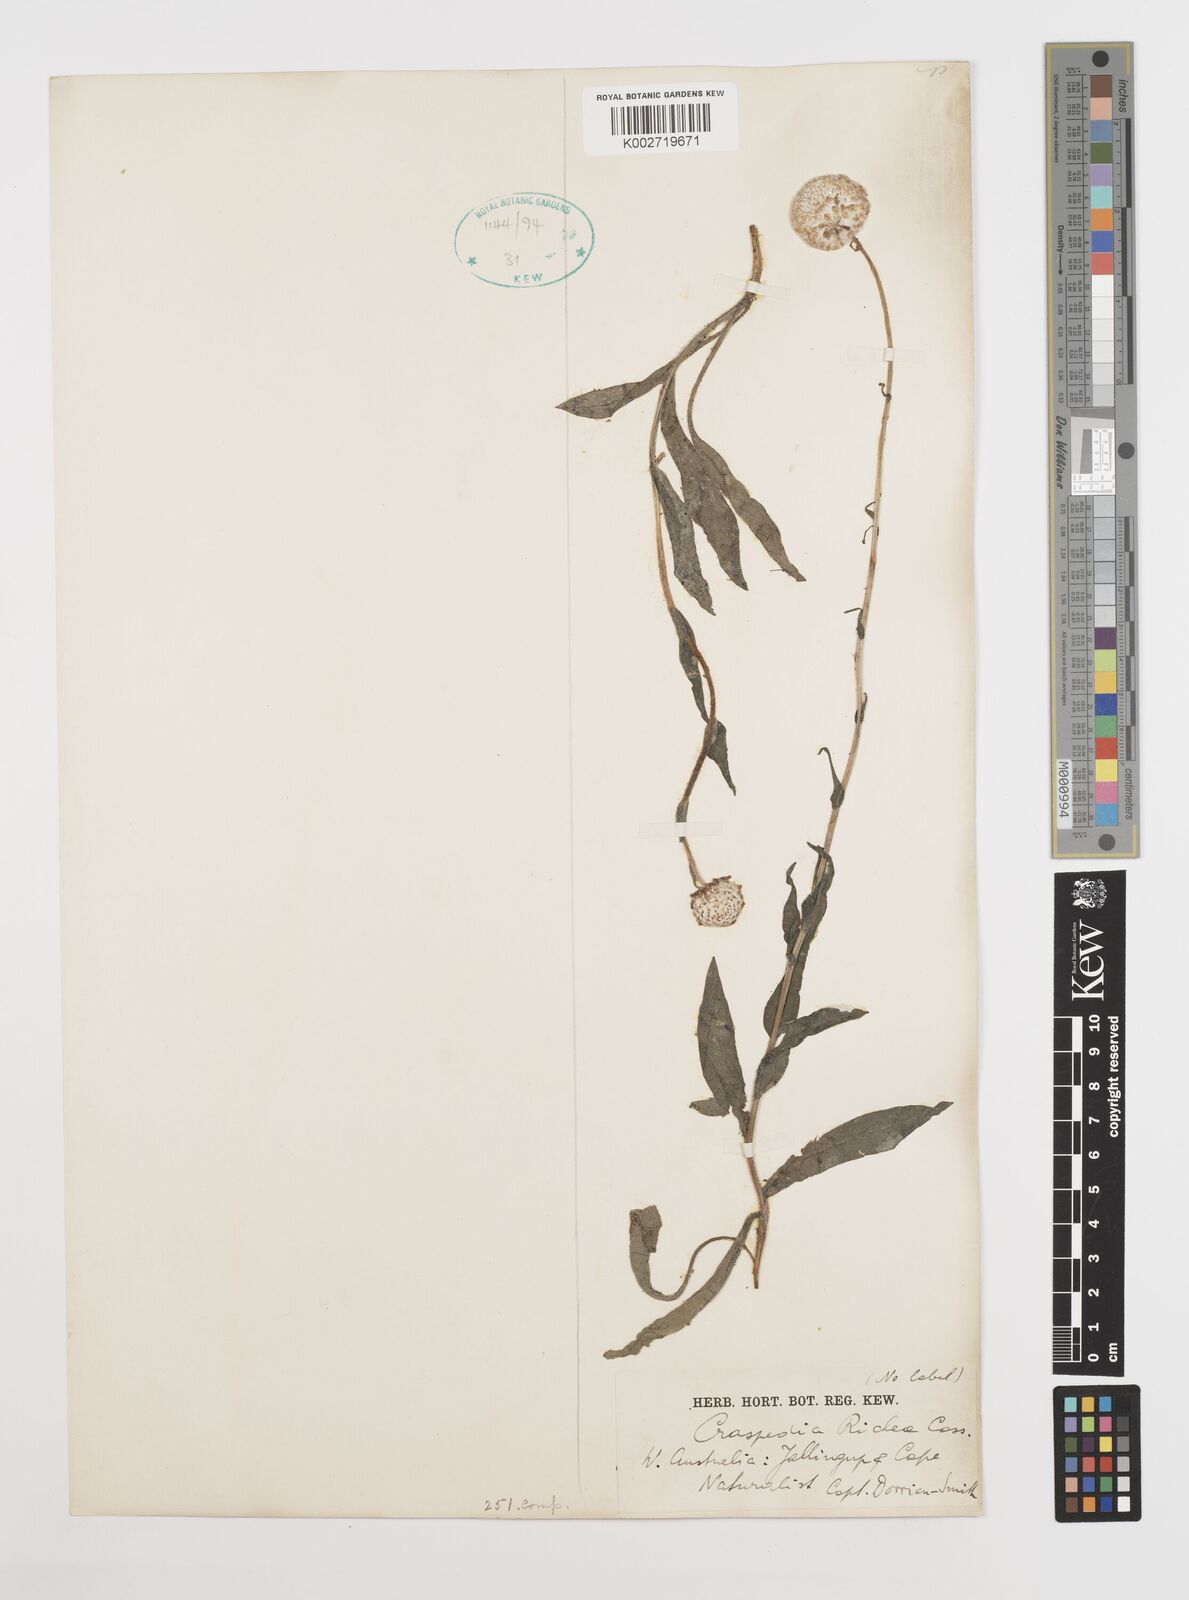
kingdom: Plantae
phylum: Tracheophyta
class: Magnoliopsida
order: Asterales
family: Asteraceae
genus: Craspedia
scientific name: Craspedia glauca
